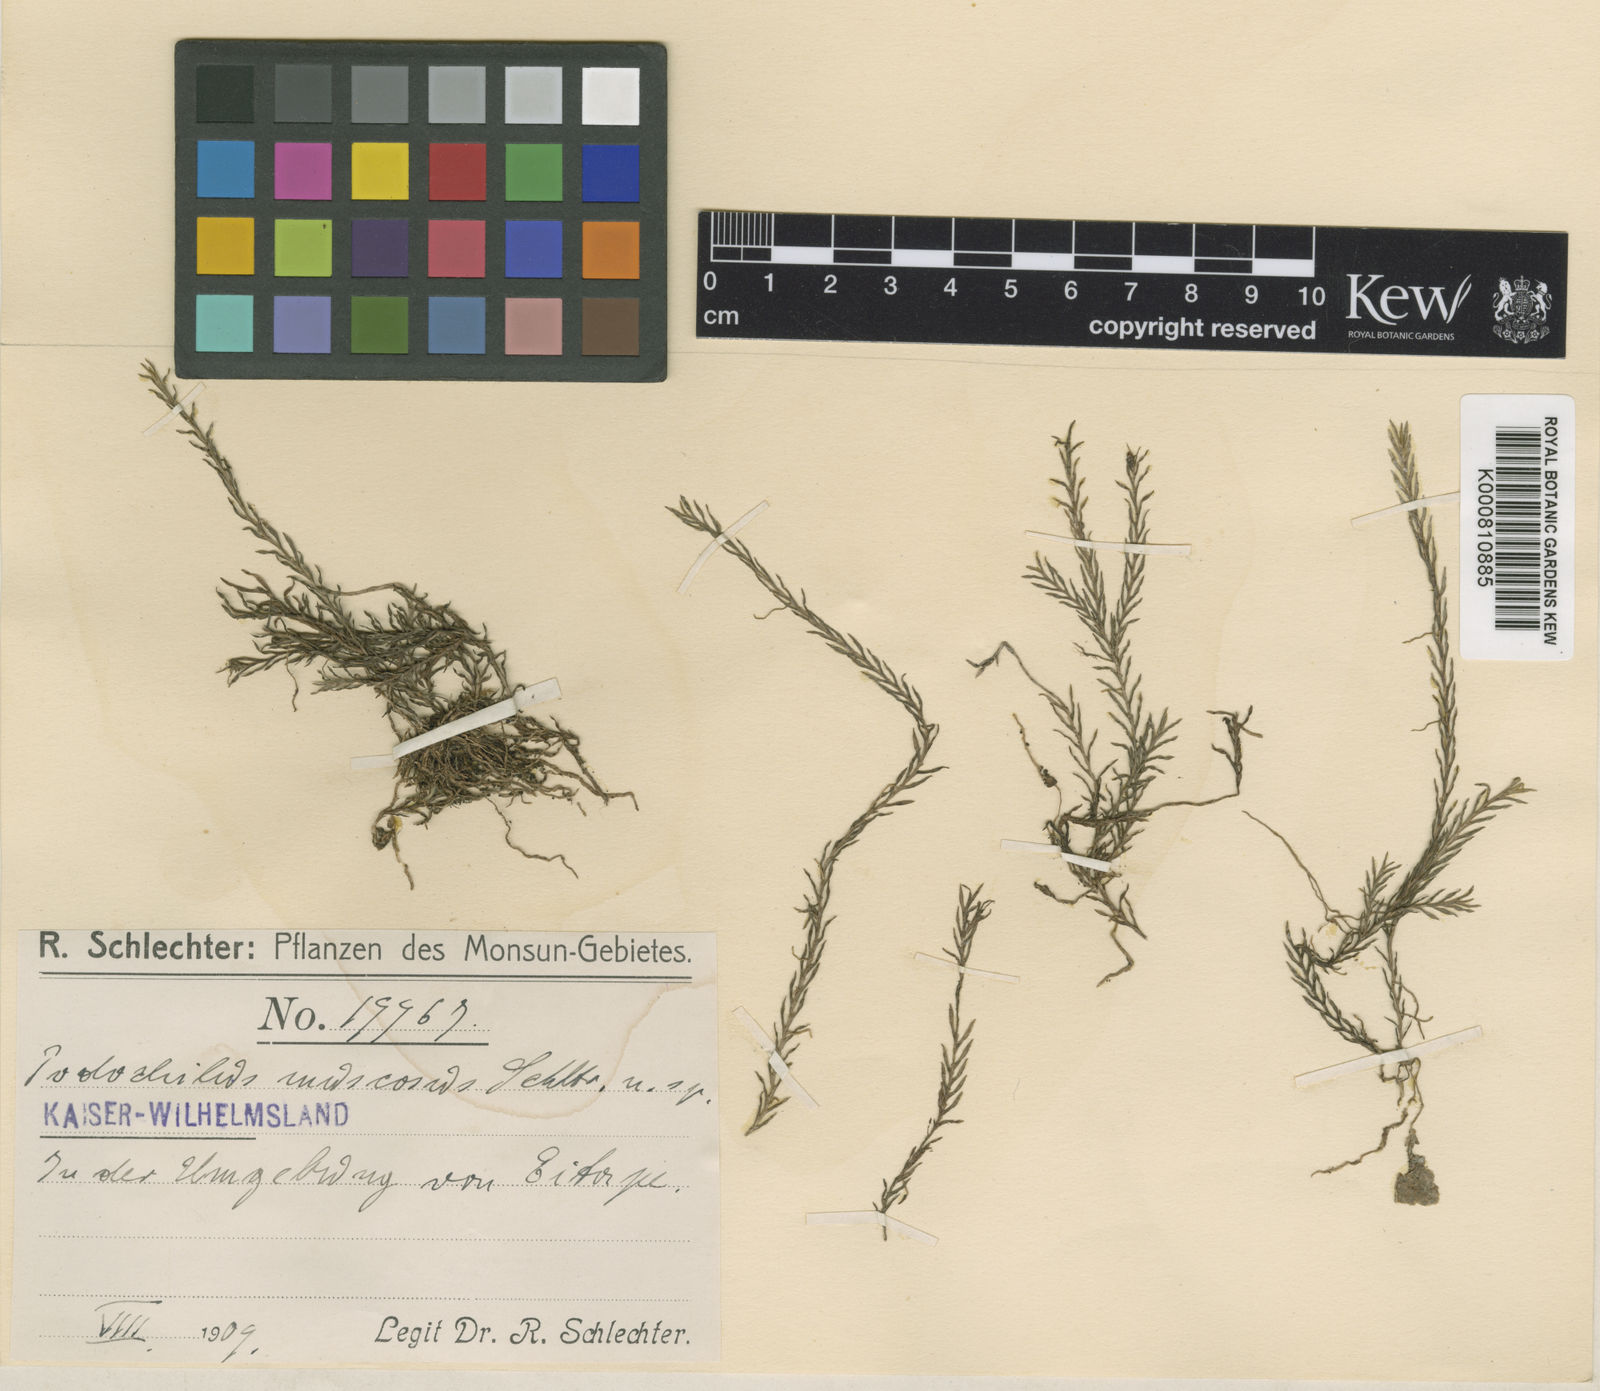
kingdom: Plantae
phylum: Tracheophyta
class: Liliopsida
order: Asparagales
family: Orchidaceae
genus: Podochilus
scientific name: Podochilus polytrichoides
